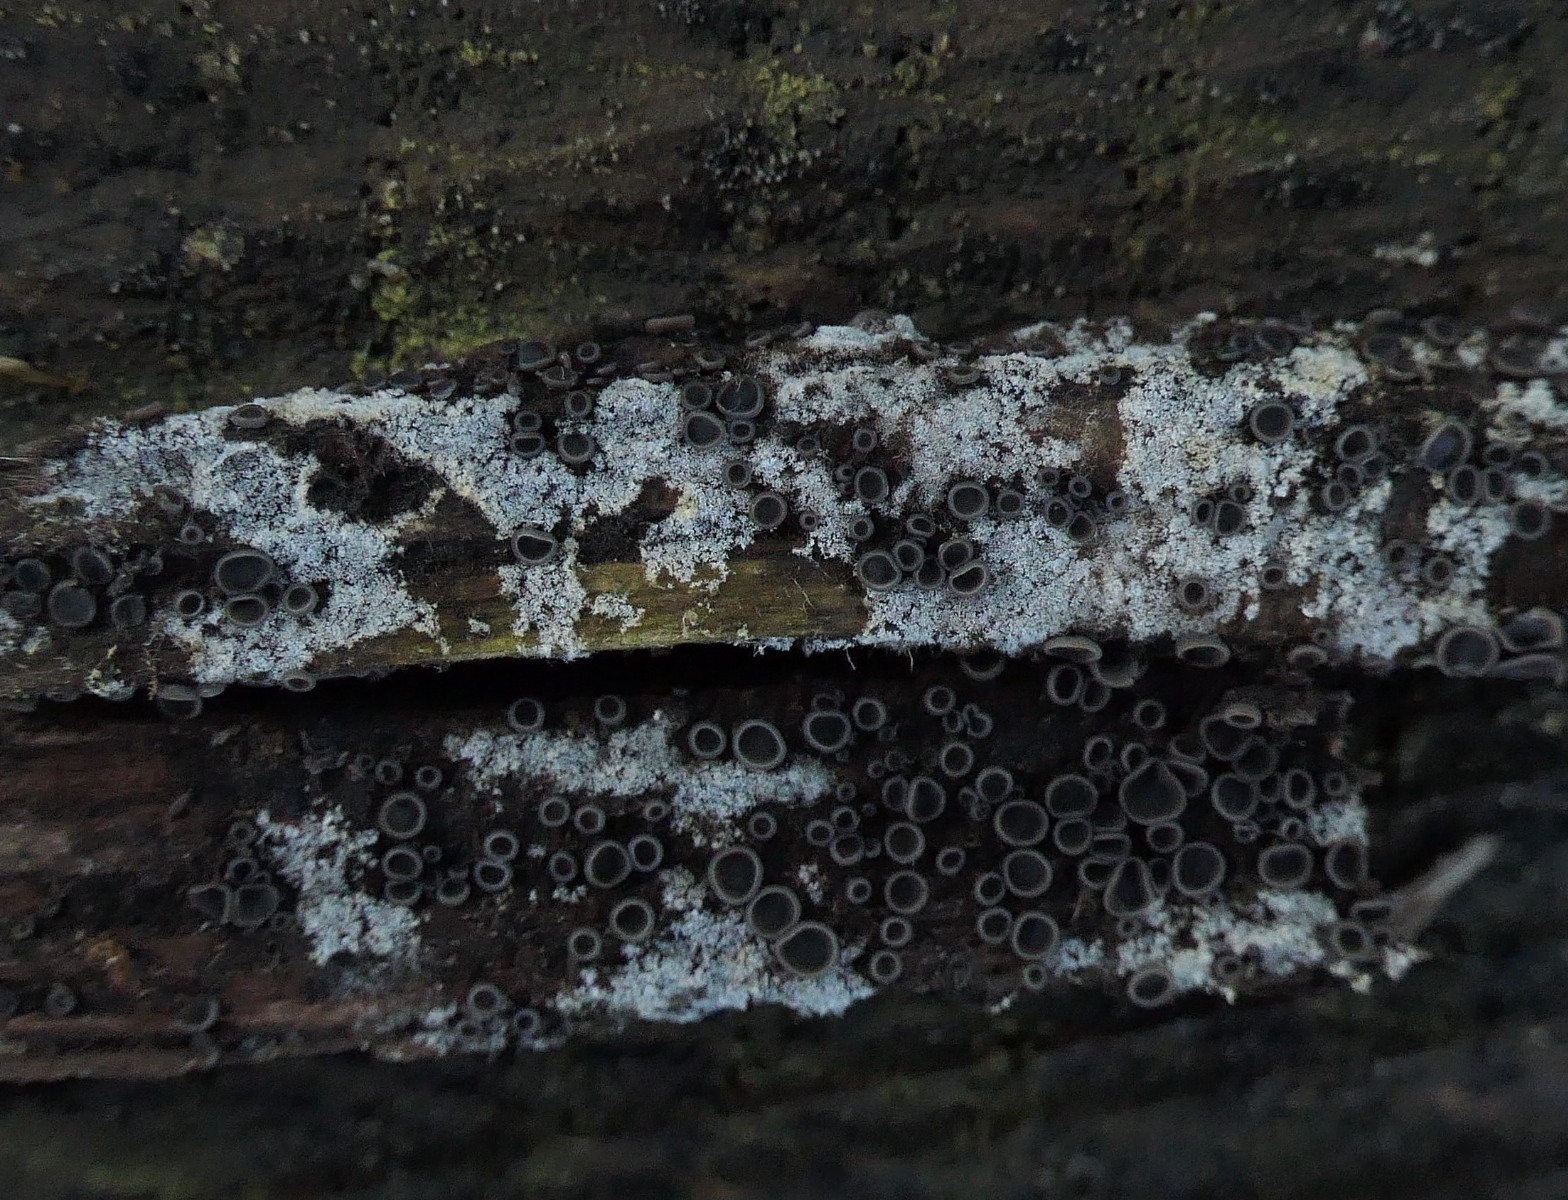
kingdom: Fungi
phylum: Ascomycota
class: Leotiomycetes
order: Helotiales
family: Mollisiaceae
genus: Tapesia
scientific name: Tapesia fusca
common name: tæppe-gråskive
